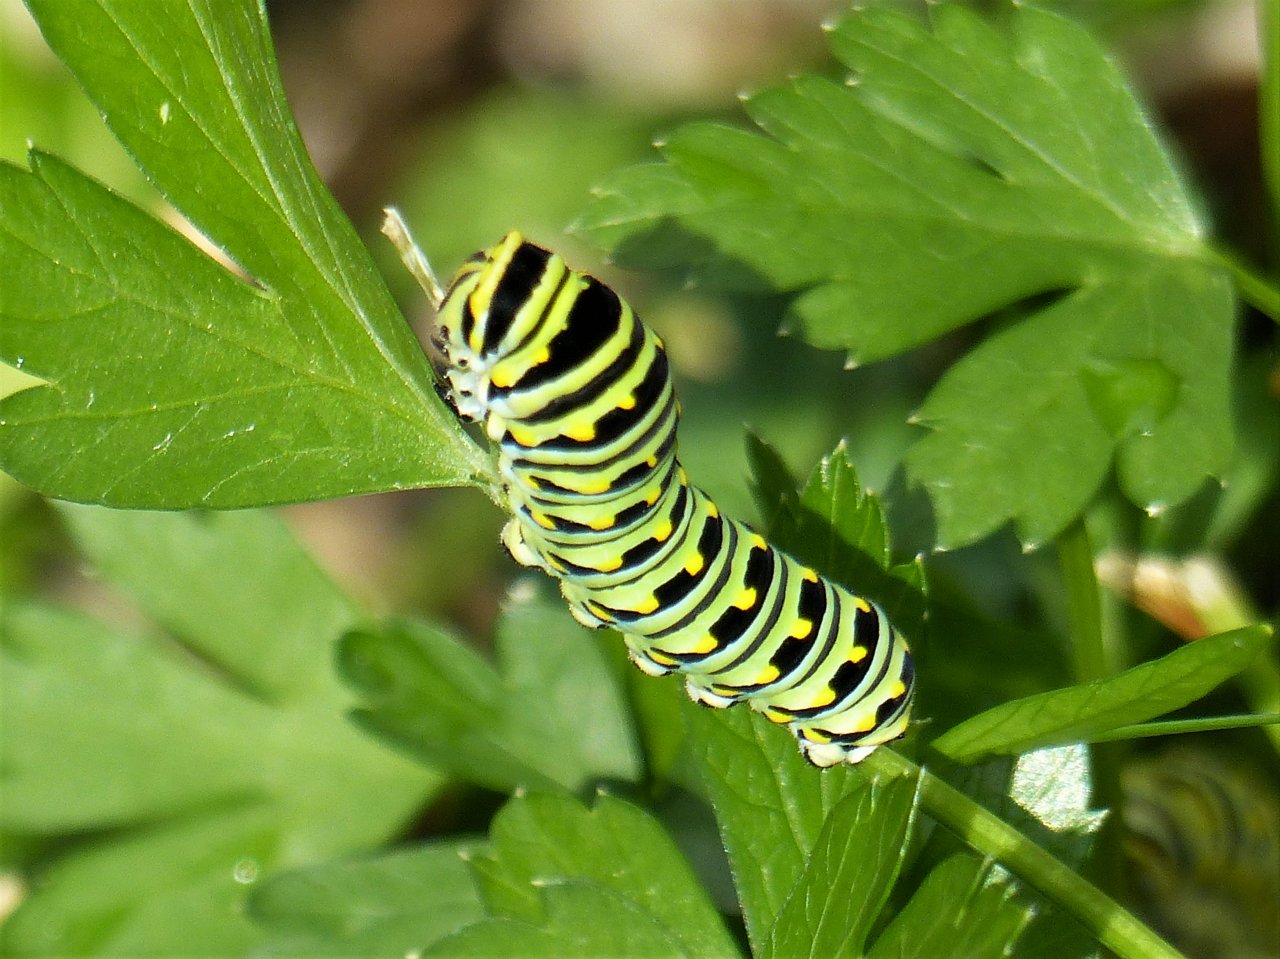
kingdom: Animalia
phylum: Arthropoda
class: Insecta
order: Lepidoptera
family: Papilionidae
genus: Papilio
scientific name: Papilio polyxenes
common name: Black Swallowtail
